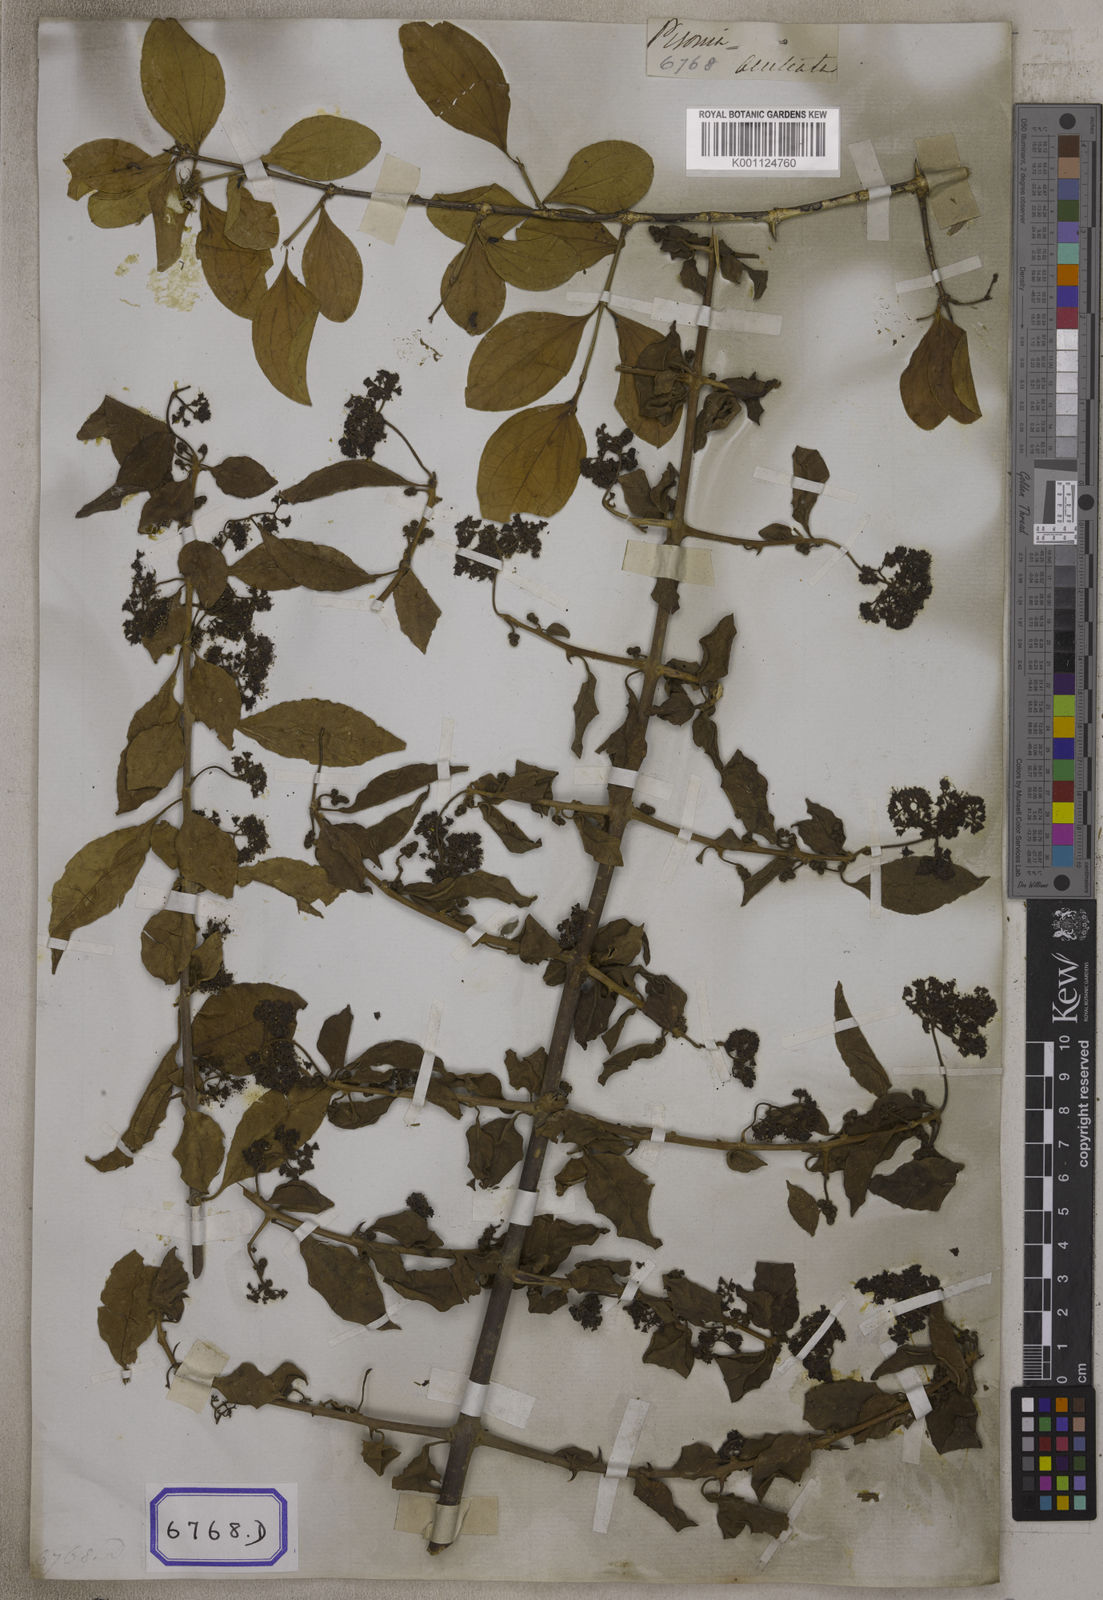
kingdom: Plantae
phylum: Tracheophyta
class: Magnoliopsida
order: Caryophyllales
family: Nyctaginaceae
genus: Pisonia
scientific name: Pisonia aculeata
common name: Cockspur vine
